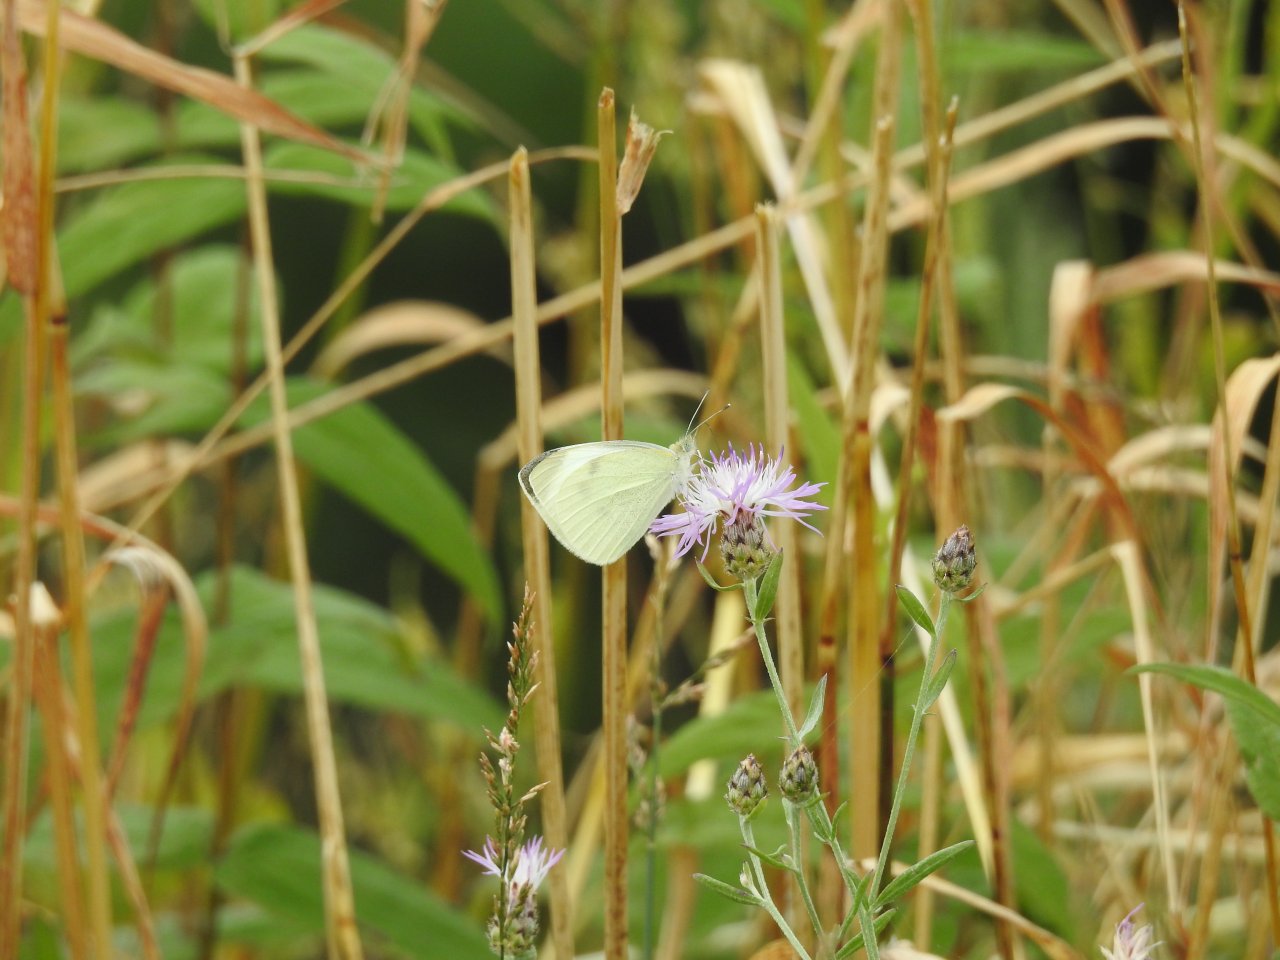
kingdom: Animalia
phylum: Arthropoda
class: Insecta
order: Lepidoptera
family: Pieridae
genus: Pieris
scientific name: Pieris rapae
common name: Cabbage White
